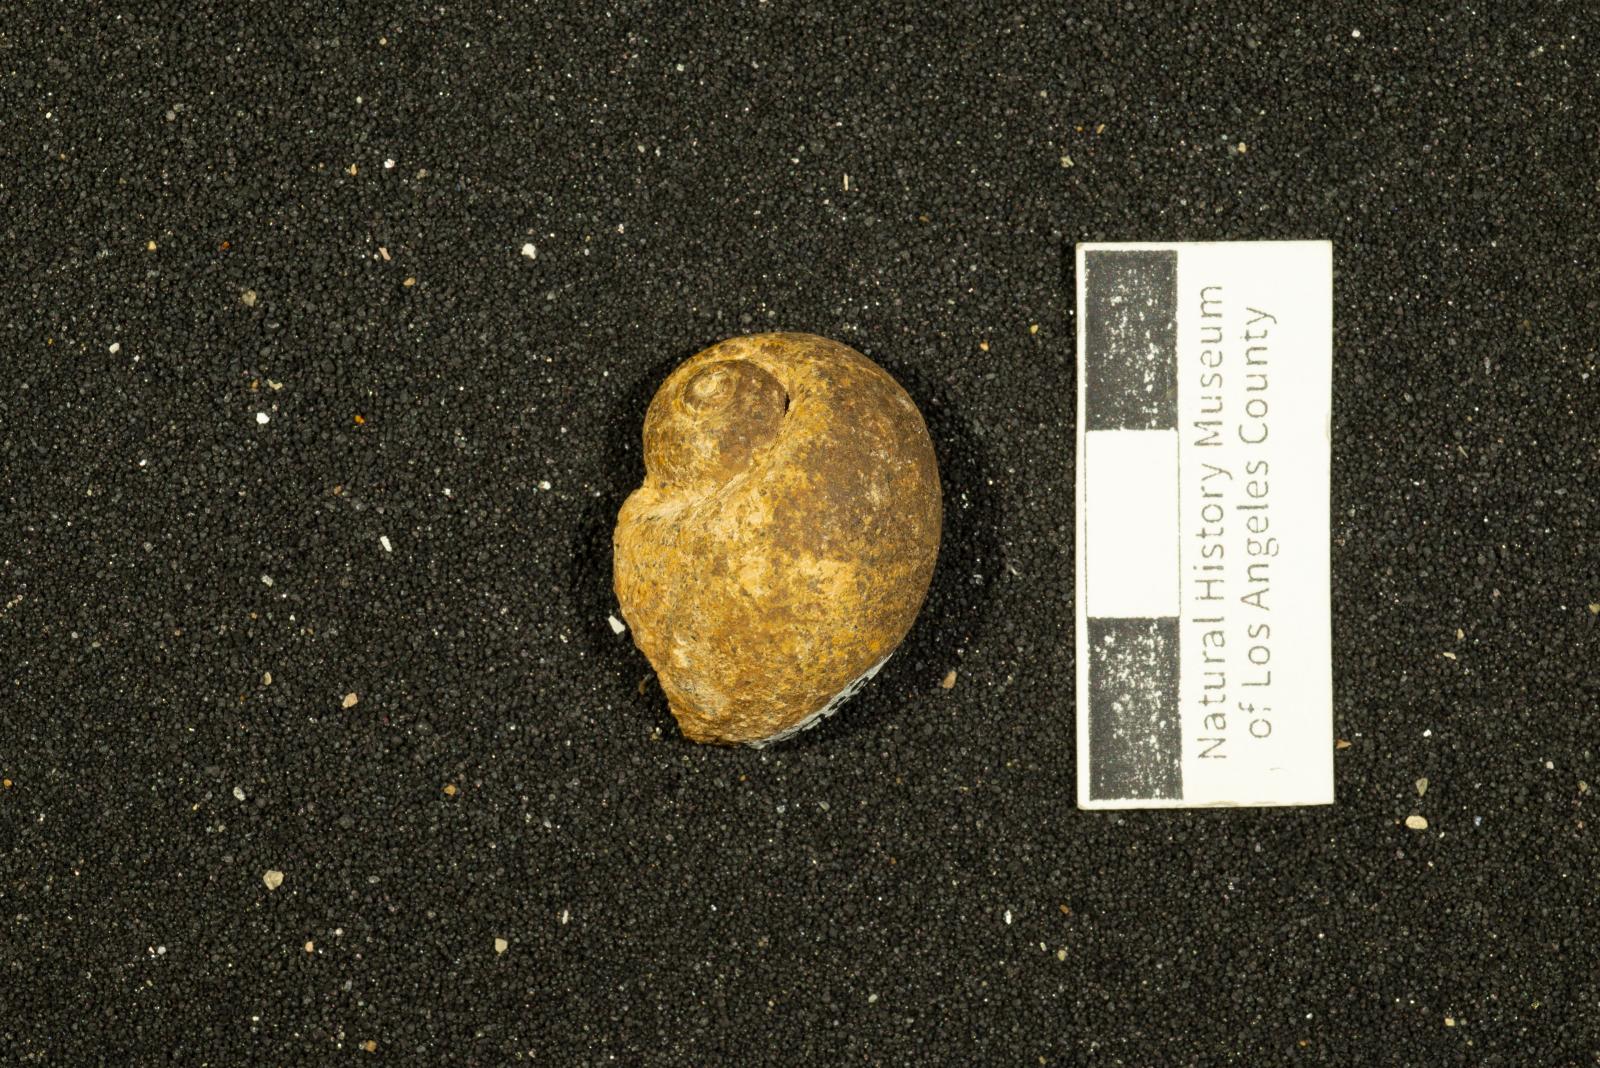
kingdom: Animalia
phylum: Mollusca
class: Gastropoda
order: Littorinimorpha
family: Naticidae
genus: Natica
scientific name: Natica conradiana
